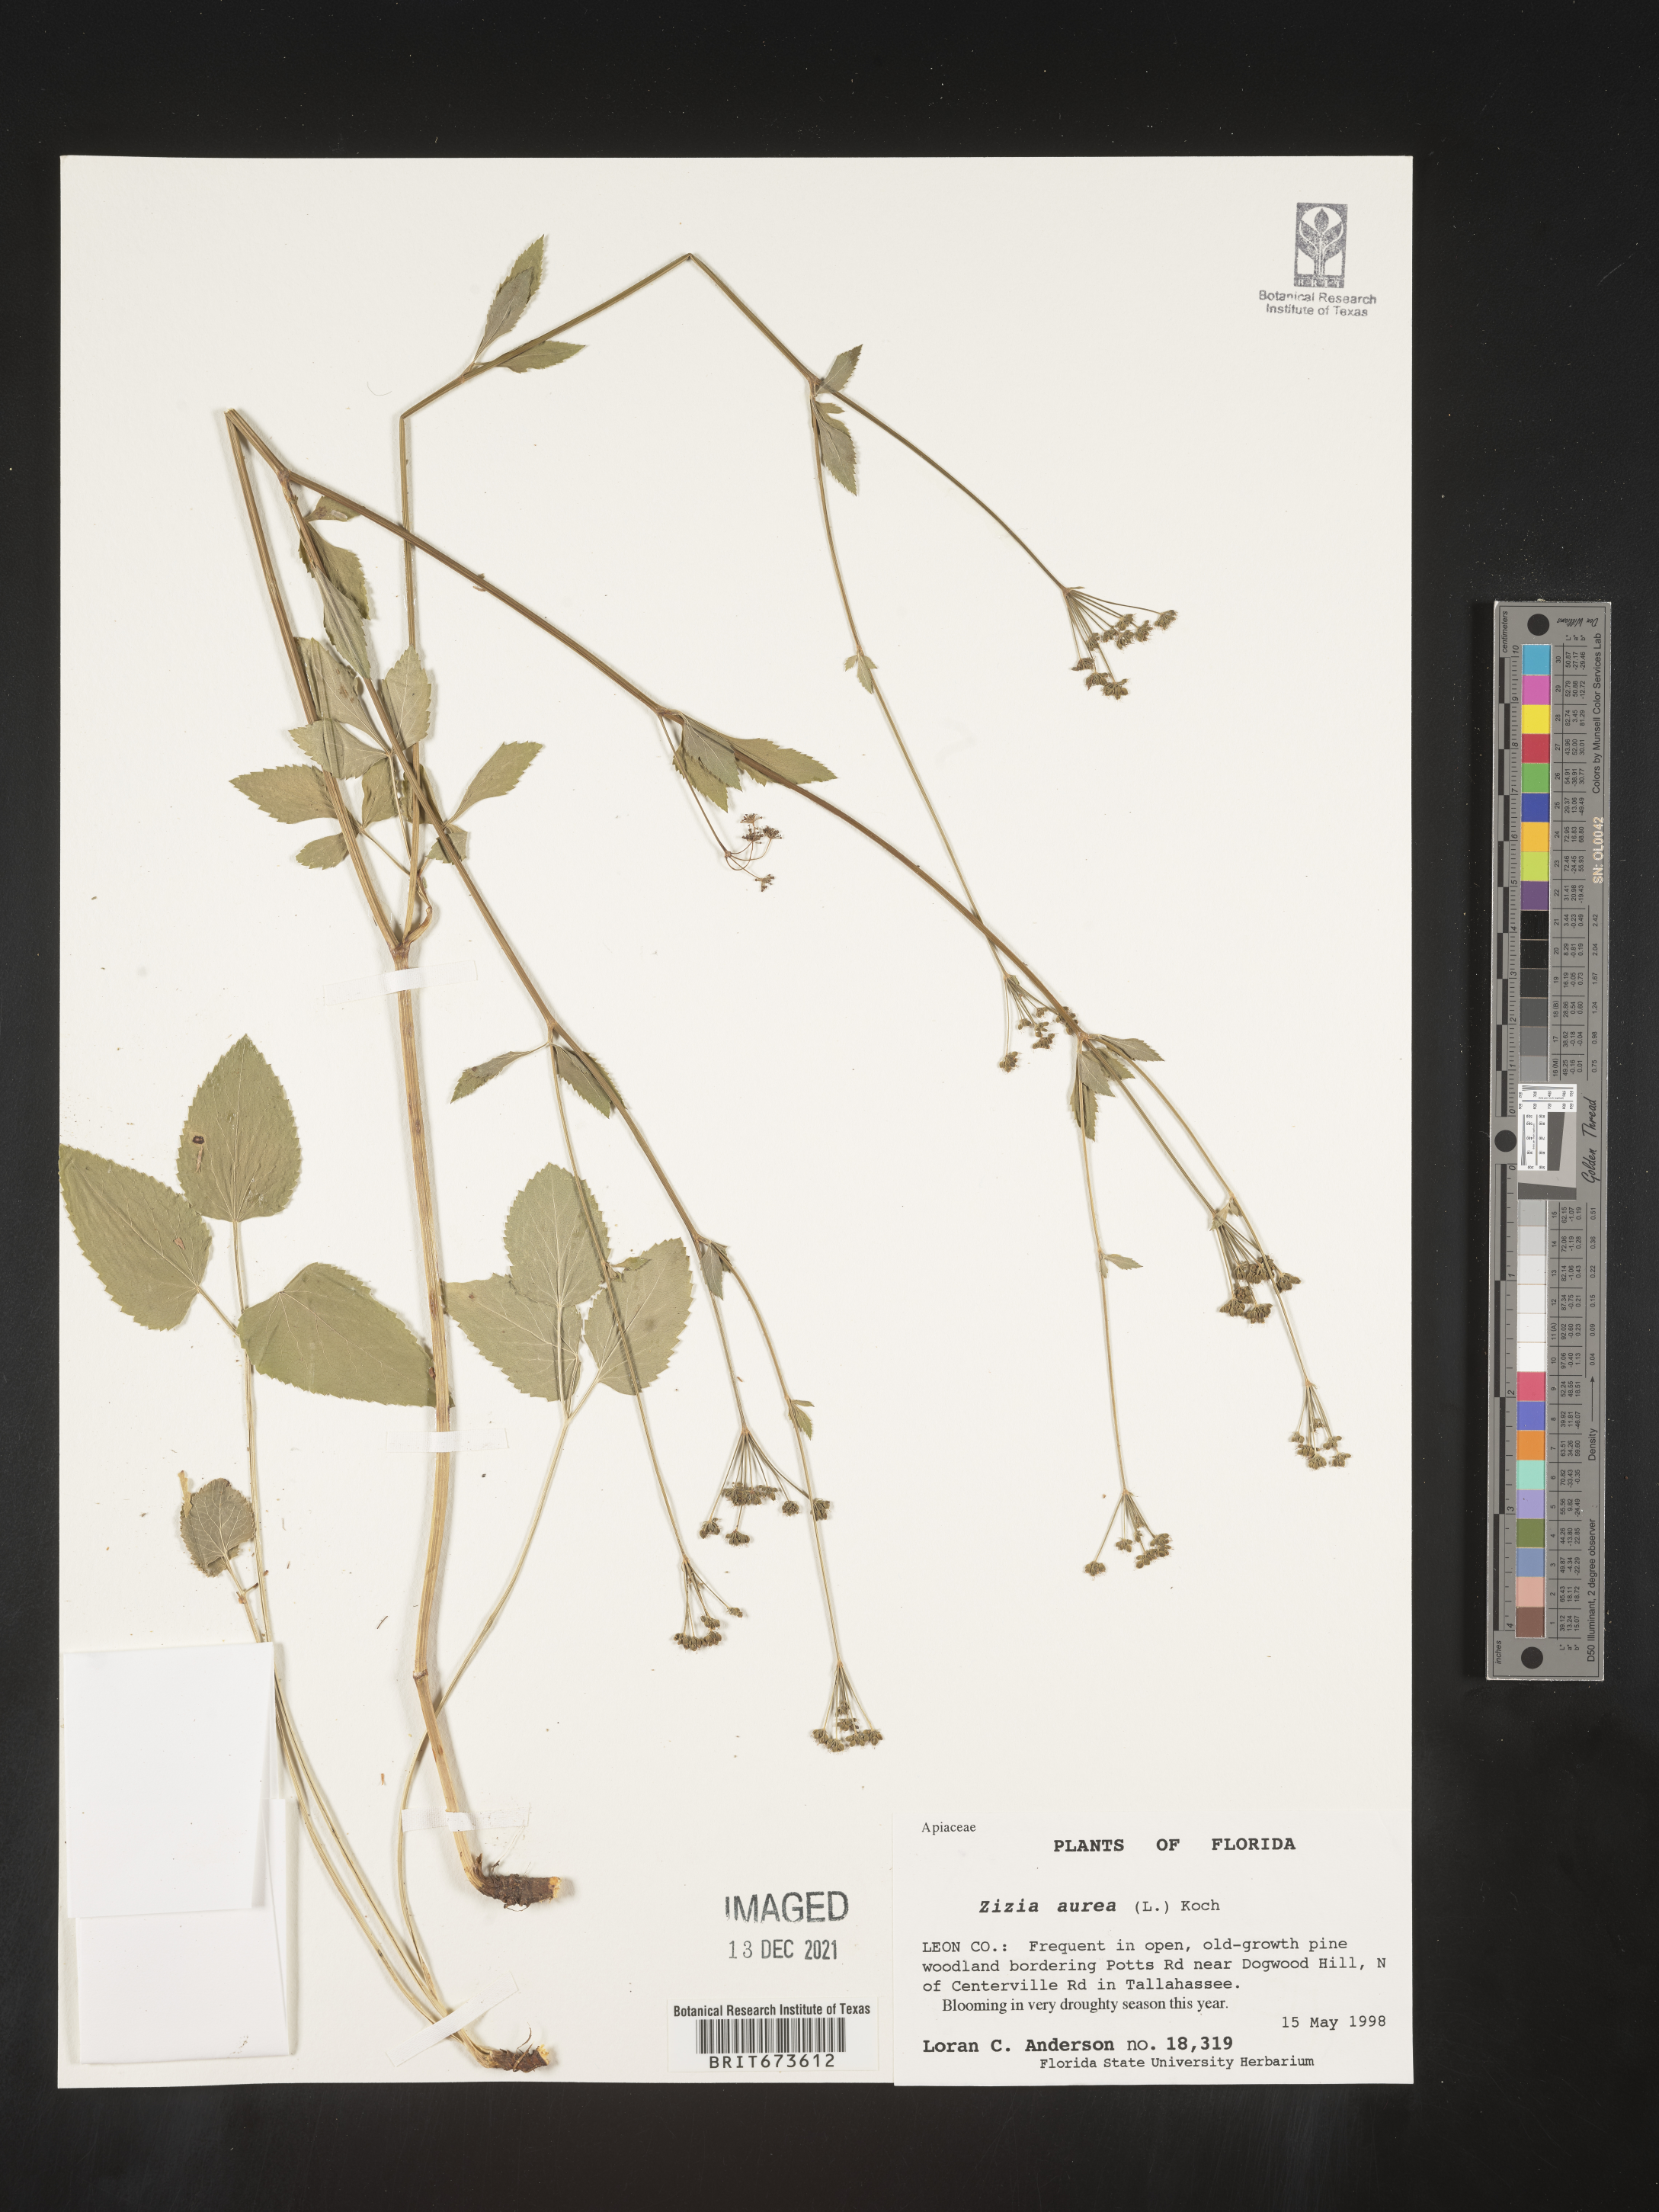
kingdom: Plantae
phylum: Tracheophyta
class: Magnoliopsida
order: Apiales
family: Apiaceae
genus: Zizia
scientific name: Zizia aurea
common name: Golden alexanders
